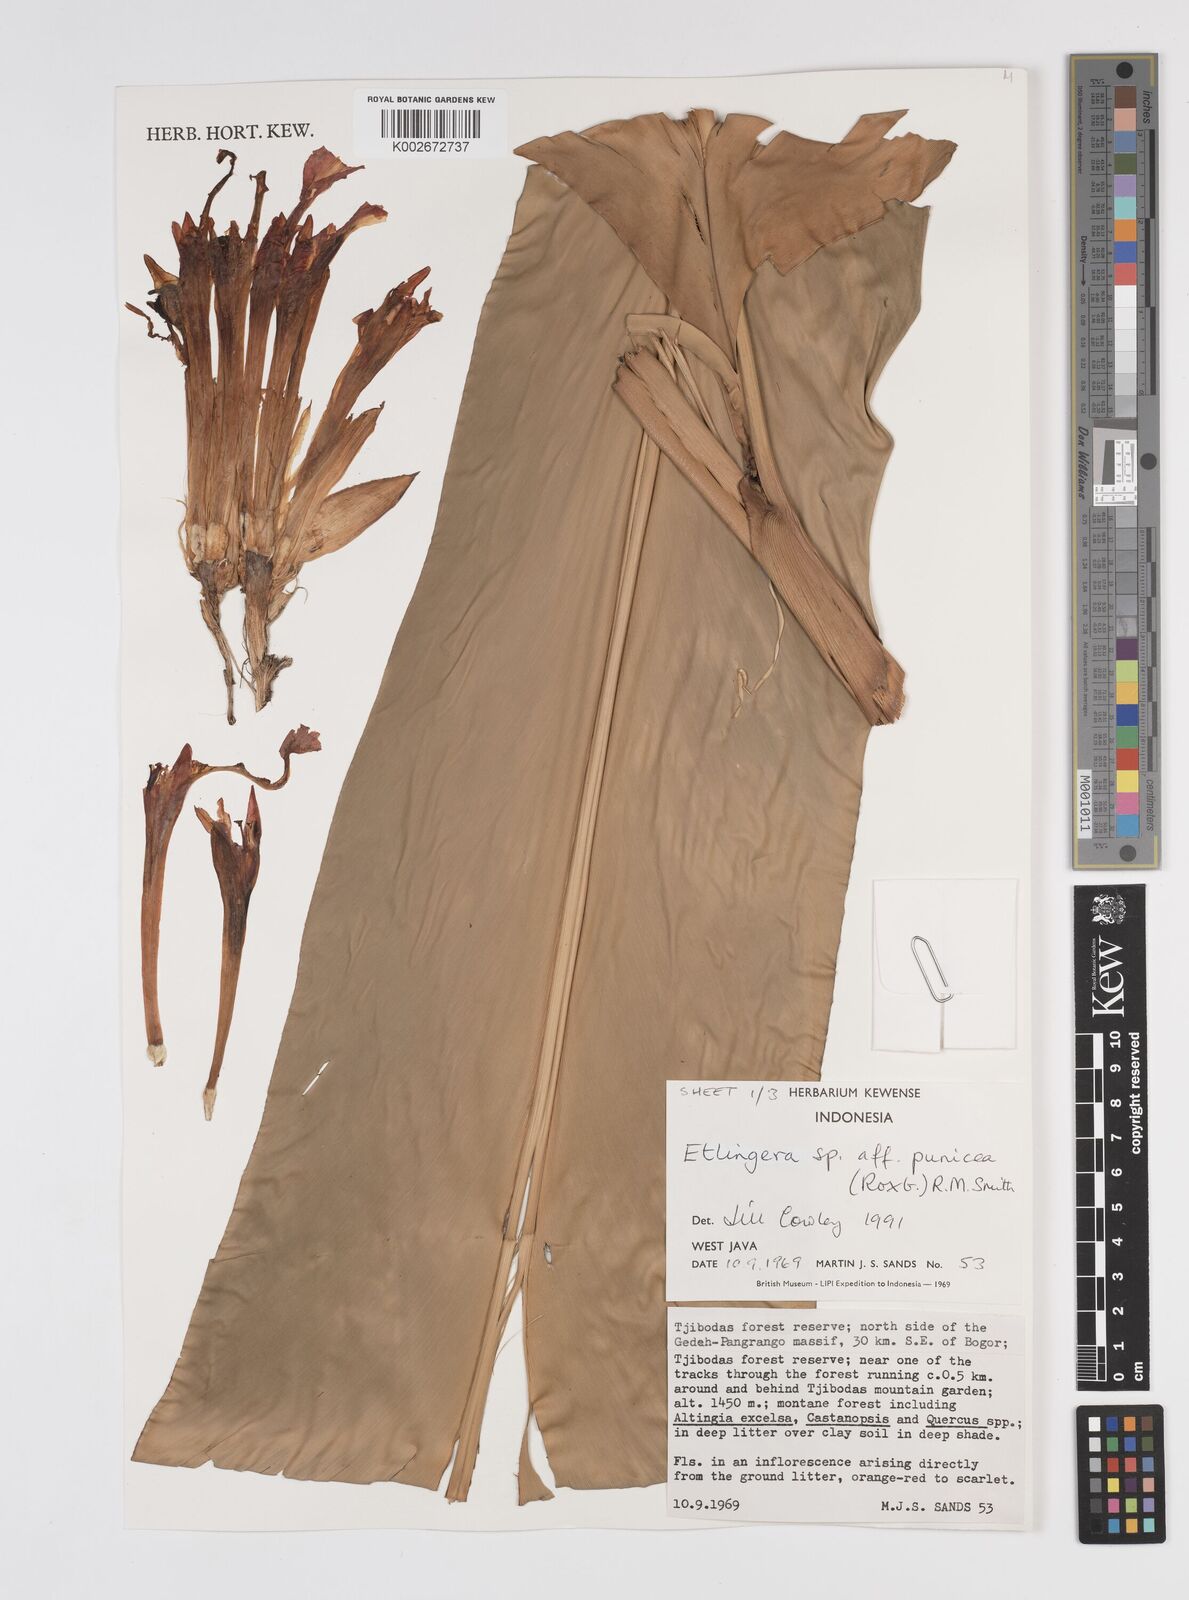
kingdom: Plantae
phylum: Tracheophyta
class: Liliopsida
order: Zingiberales
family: Zingiberaceae
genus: Etlingera
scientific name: Etlingera punicea
